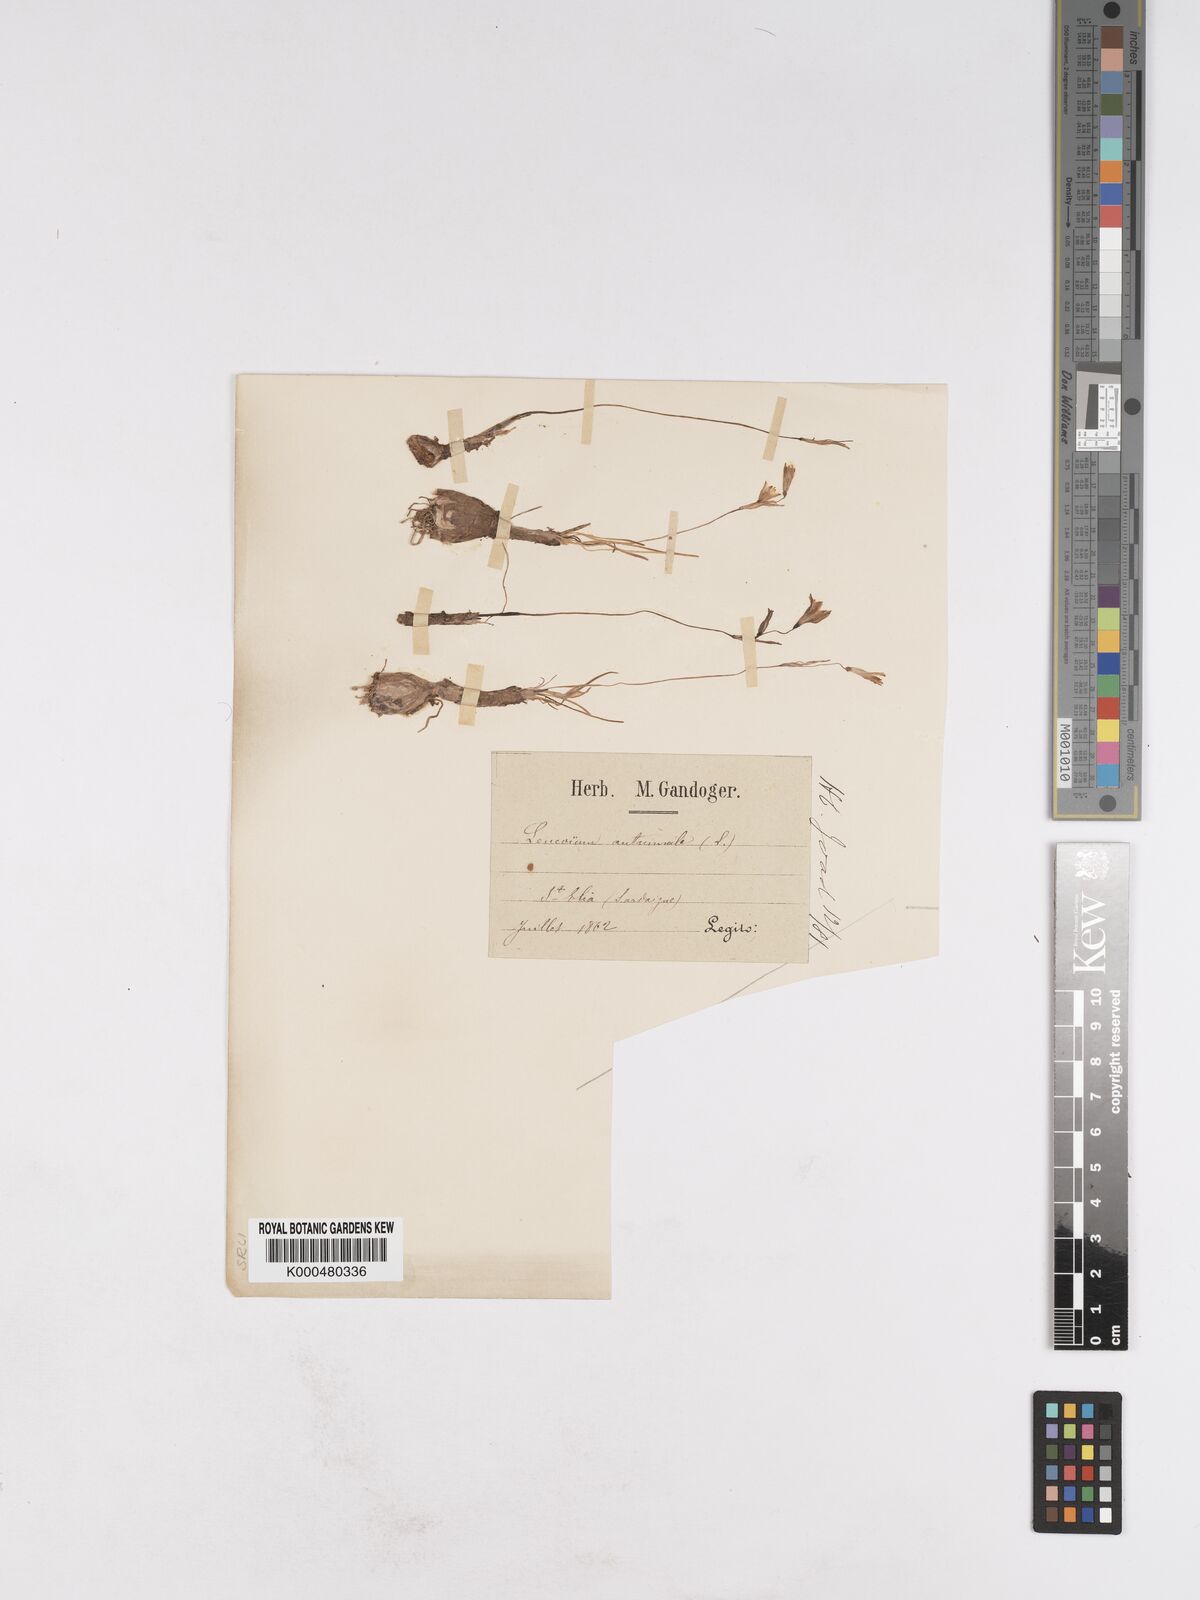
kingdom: Plantae
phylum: Tracheophyta
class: Liliopsida
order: Asparagales
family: Amaryllidaceae
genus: Acis
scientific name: Acis autumnalis
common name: Autumn snowflake
